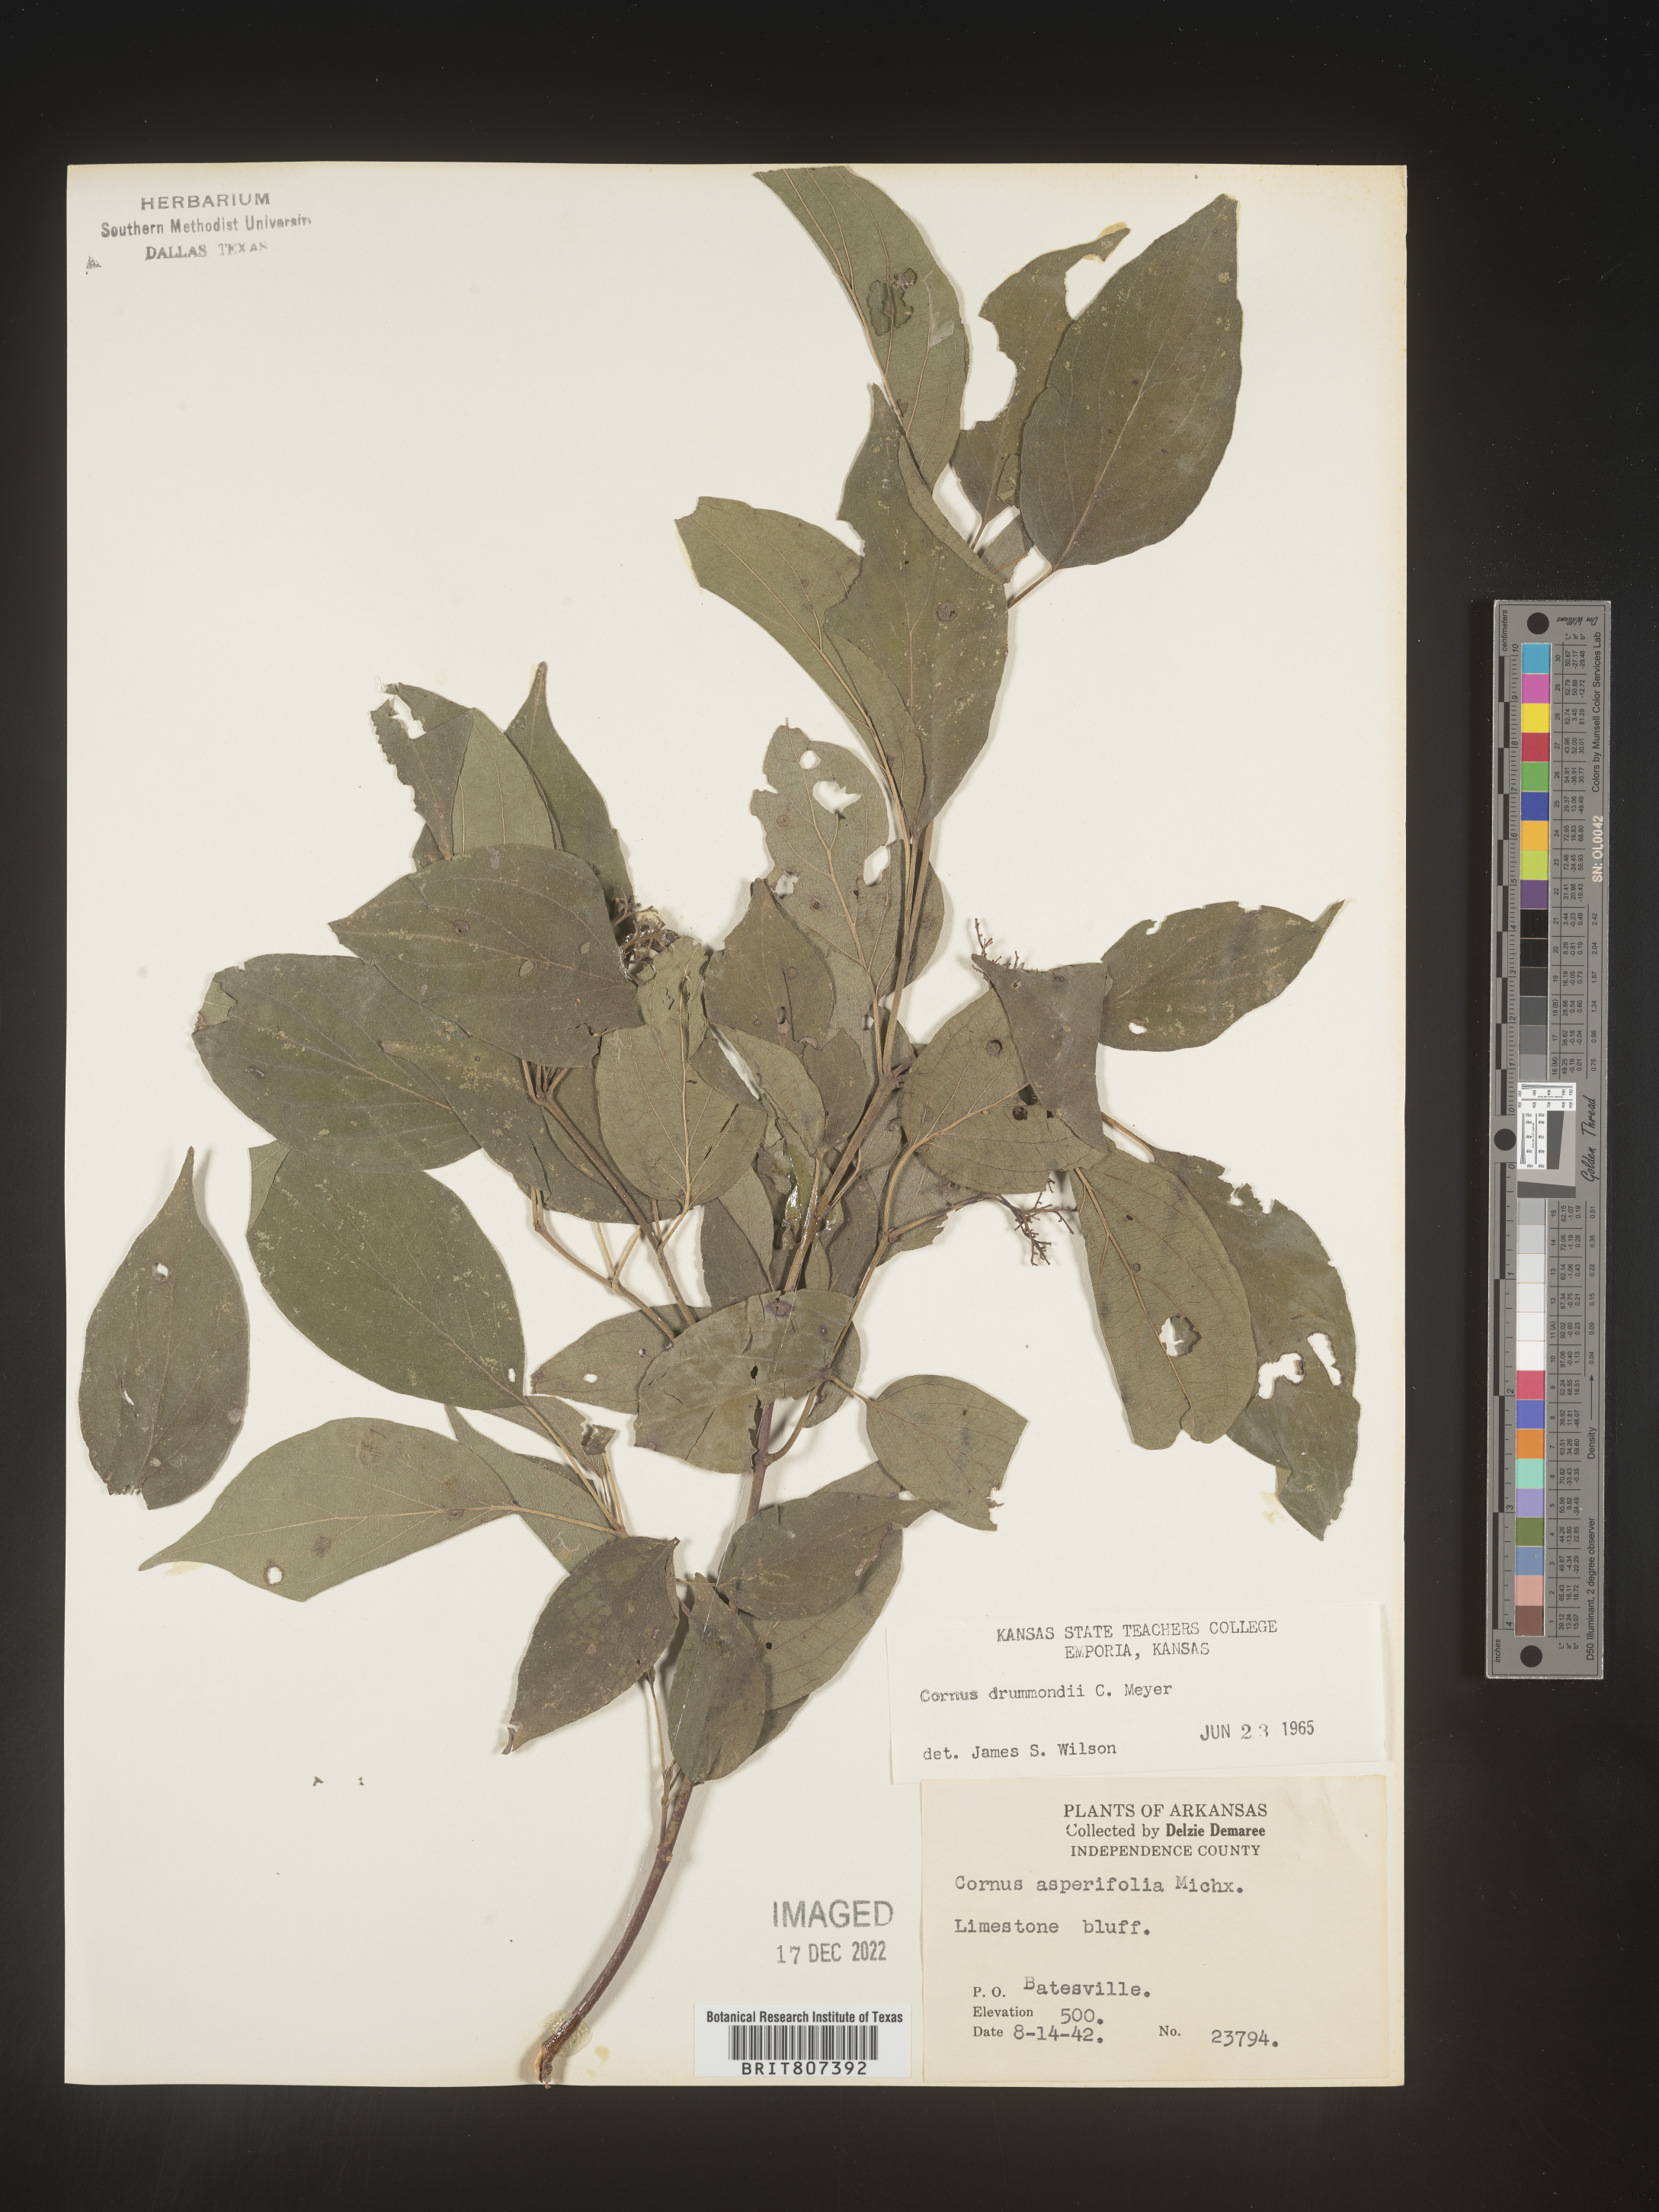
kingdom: Plantae
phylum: Tracheophyta
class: Magnoliopsida
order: Cornales
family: Cornaceae
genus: Cornus
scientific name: Cornus drummondii
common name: Rough-leaf dogwood
